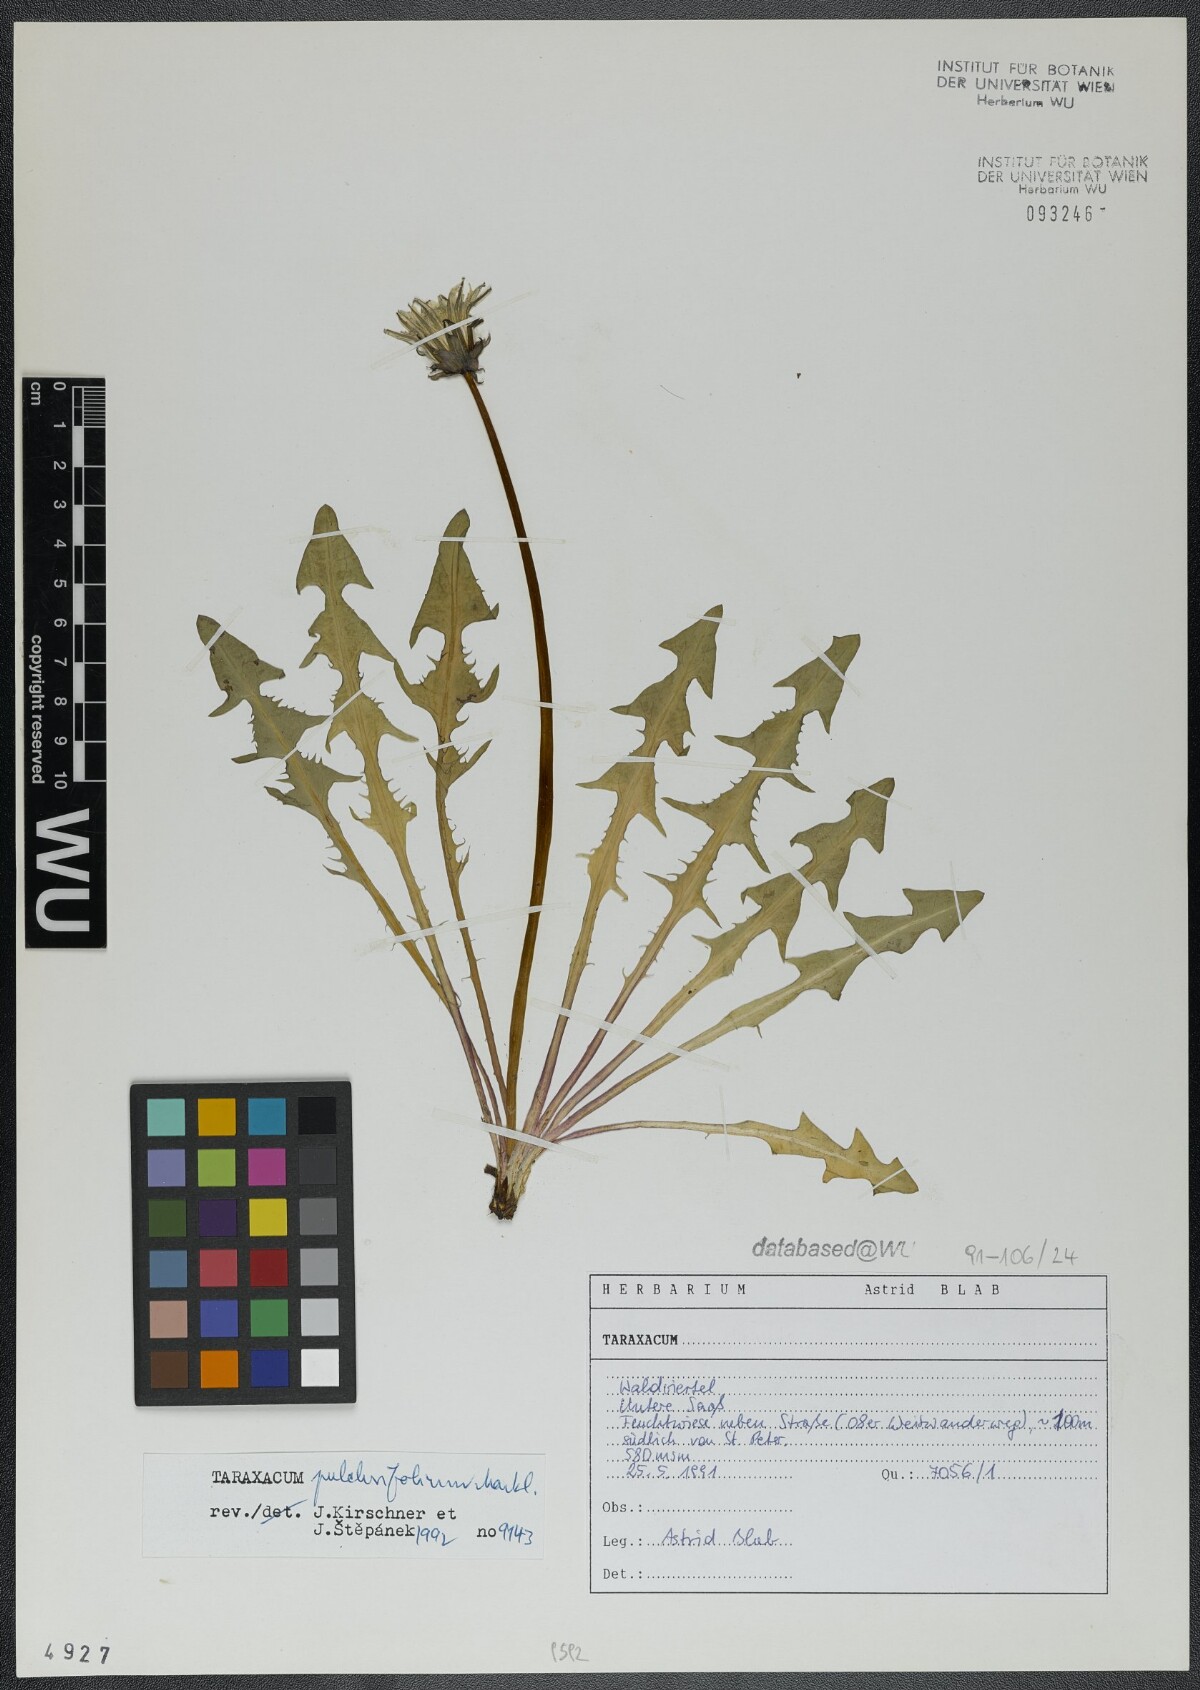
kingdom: Plantae
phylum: Tracheophyta
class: Magnoliopsida
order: Asterales
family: Asteraceae
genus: Taraxacum
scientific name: Taraxacum pulchrifolium
